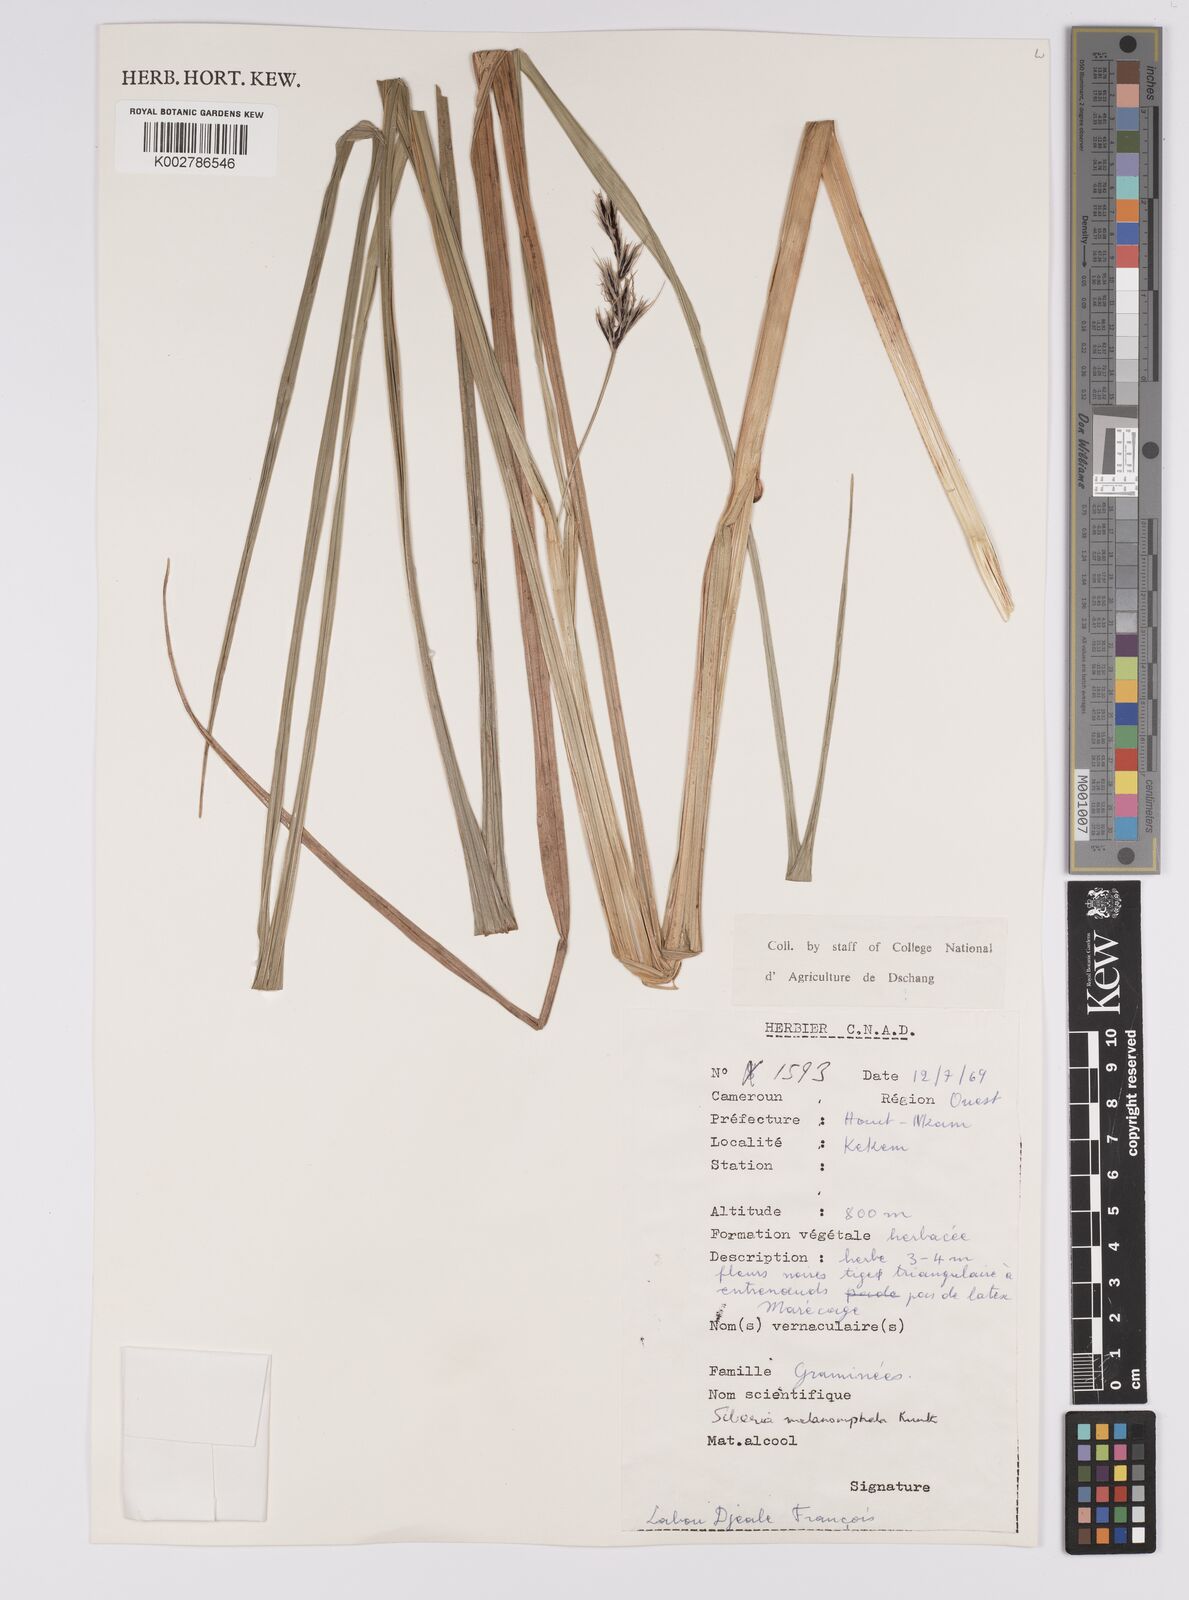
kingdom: Plantae
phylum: Tracheophyta
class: Liliopsida
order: Poales
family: Cyperaceae
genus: Scleria
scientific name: Scleria melanomphala
